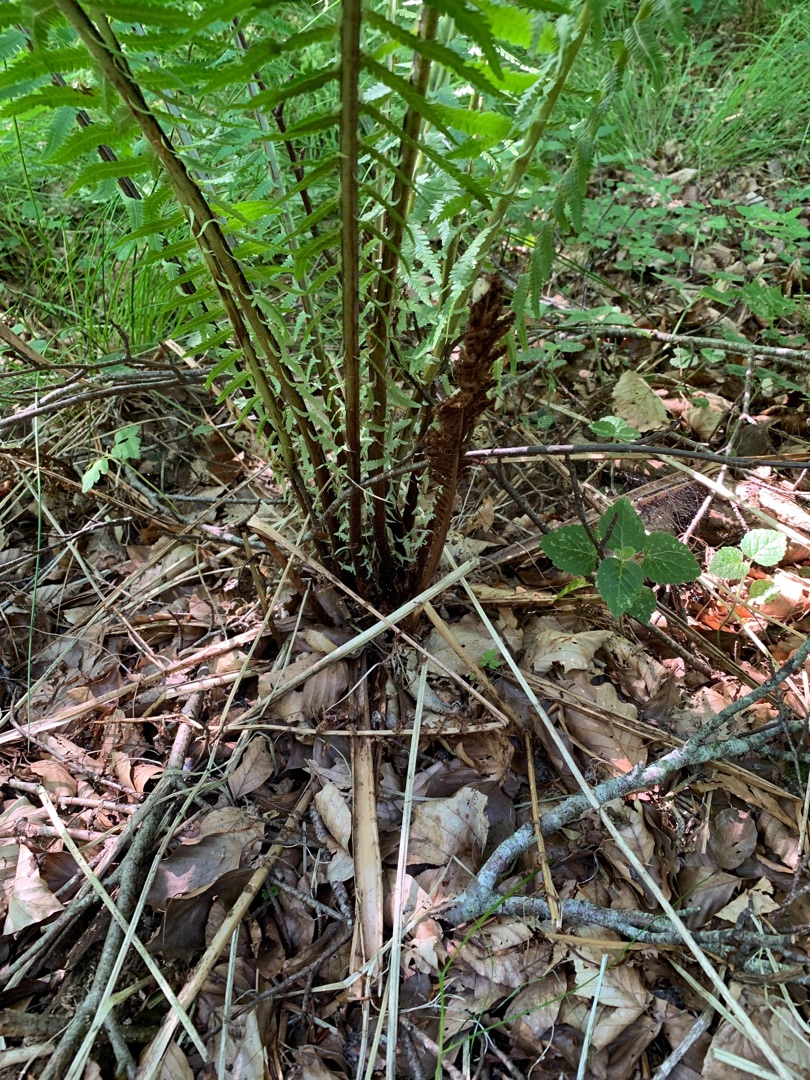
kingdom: Plantae
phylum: Tracheophyta
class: Polypodiopsida
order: Polypodiales
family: Onocleaceae
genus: Matteuccia
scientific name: Matteuccia struthiopteris
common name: Strudsvinge
